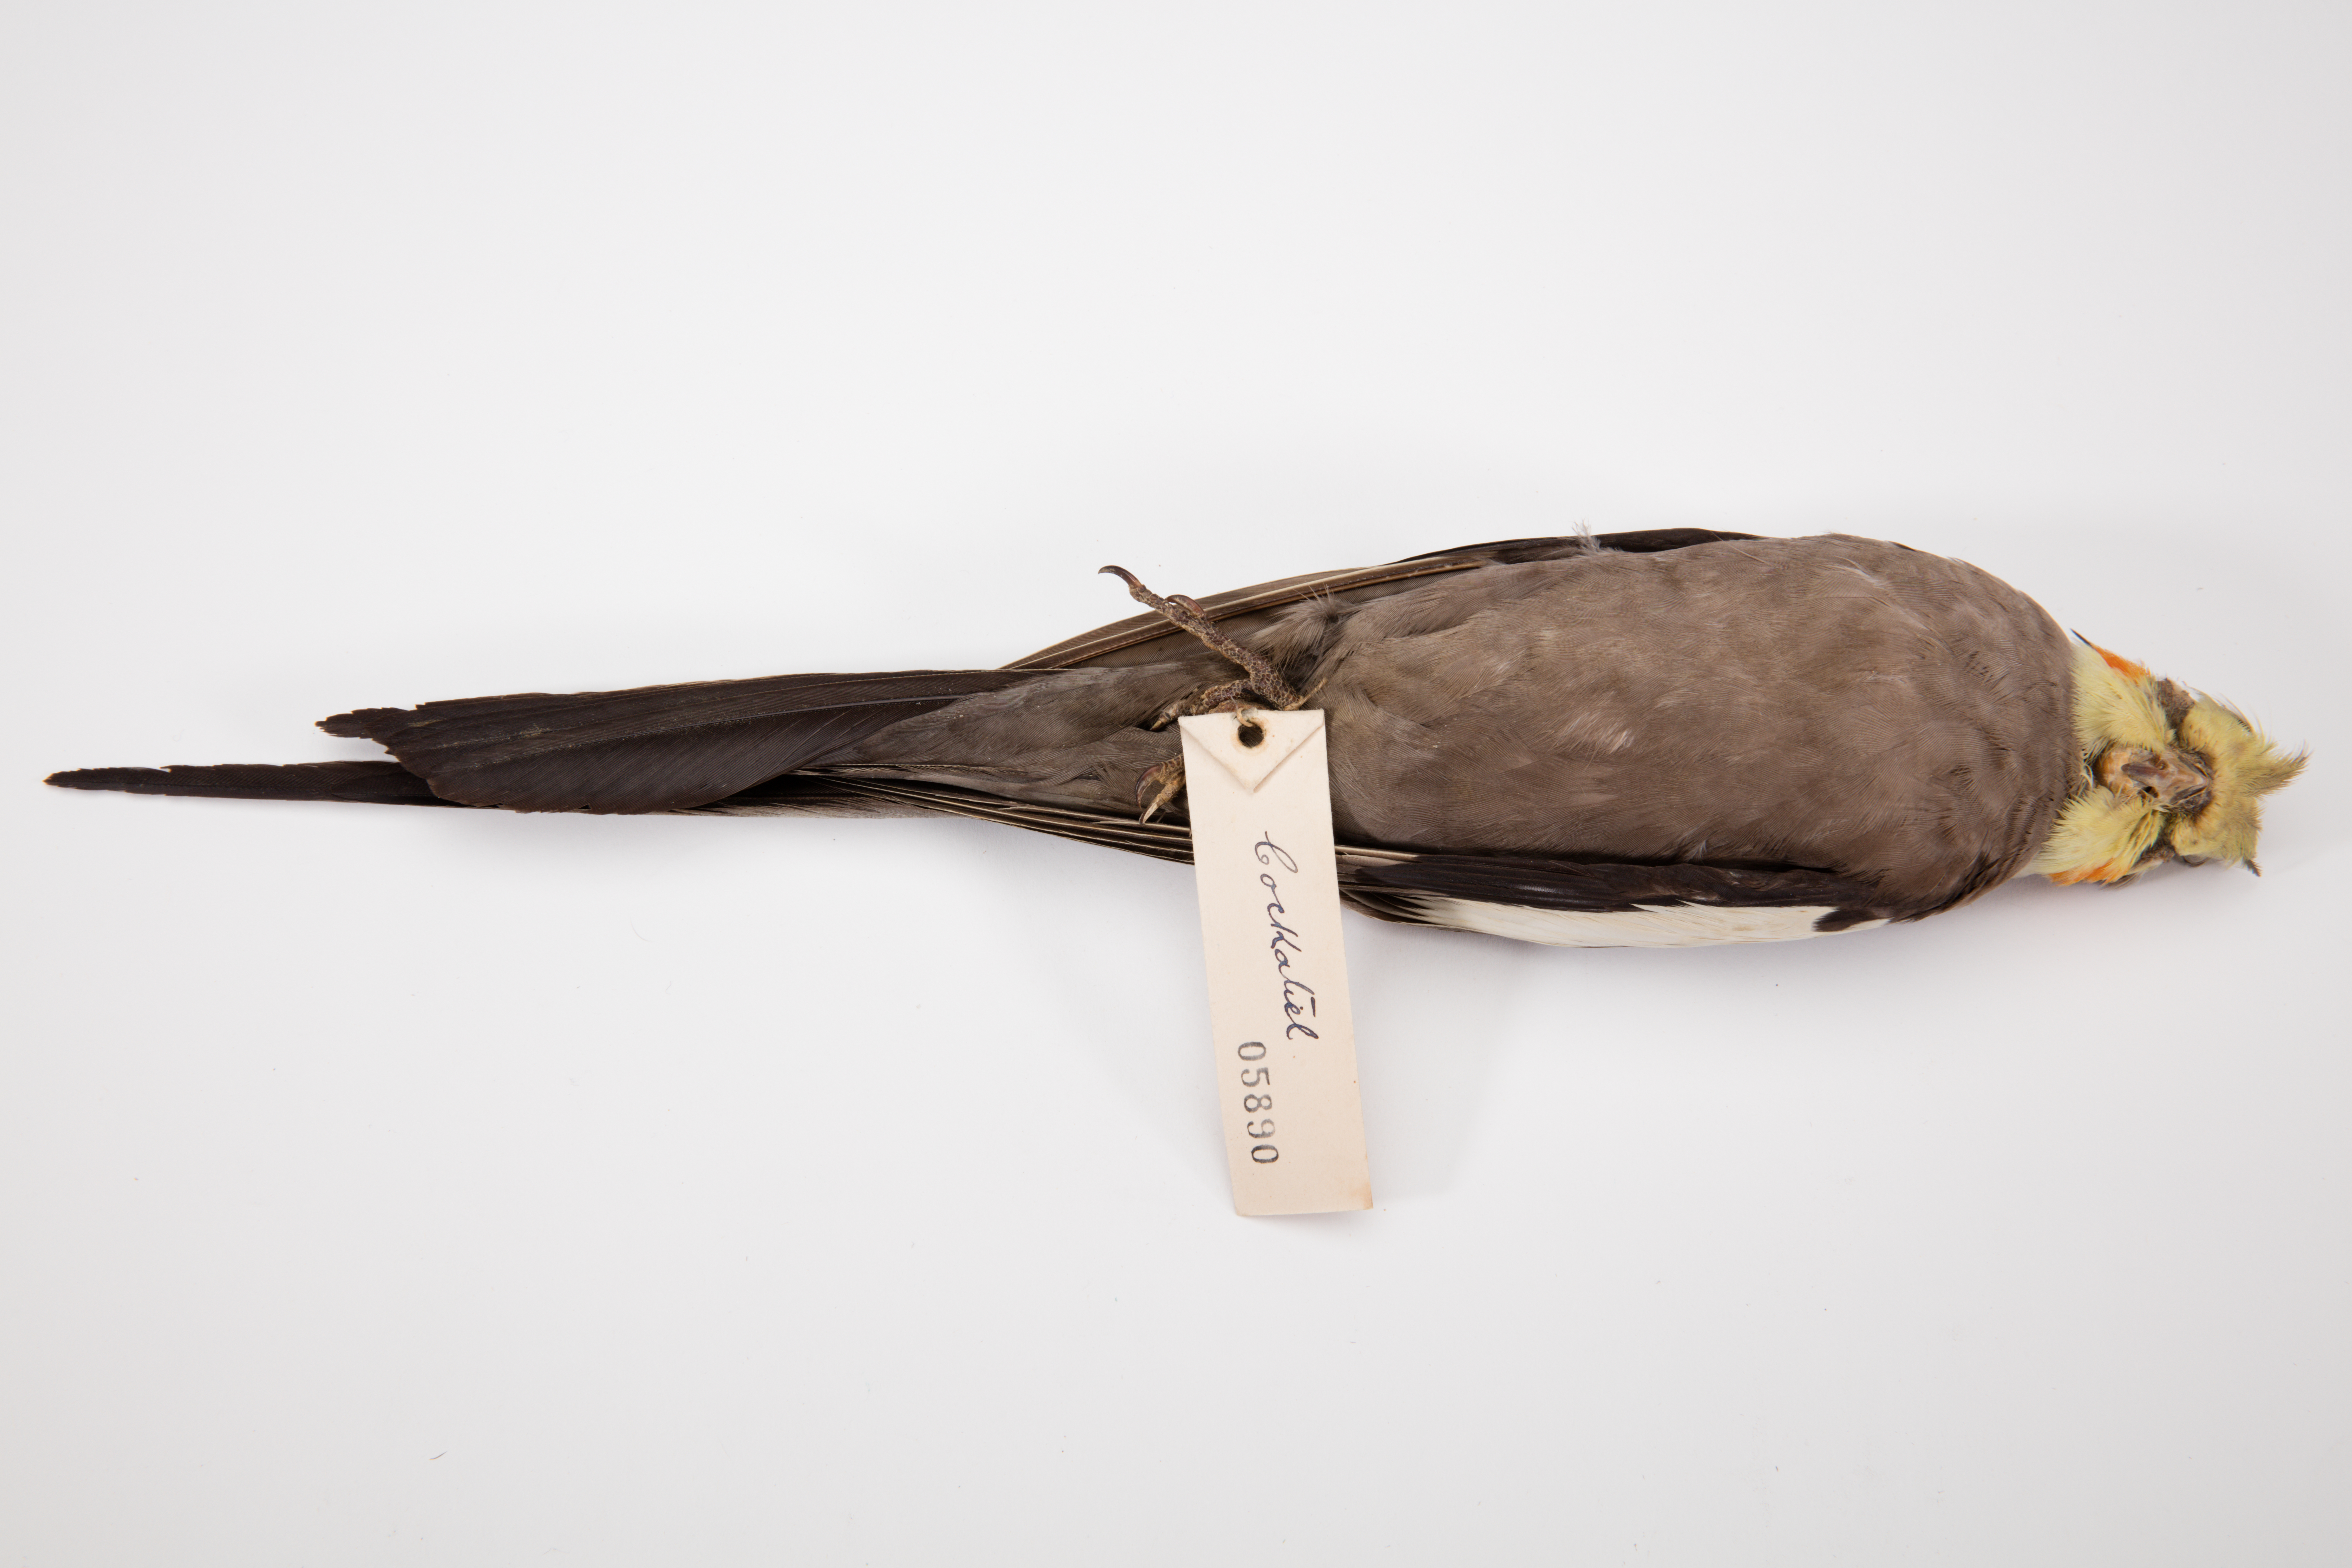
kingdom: Animalia
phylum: Chordata
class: Aves
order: Psittaciformes
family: Psittacidae
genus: Nymphicus
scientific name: Nymphicus hollandicus
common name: Cockatiel
